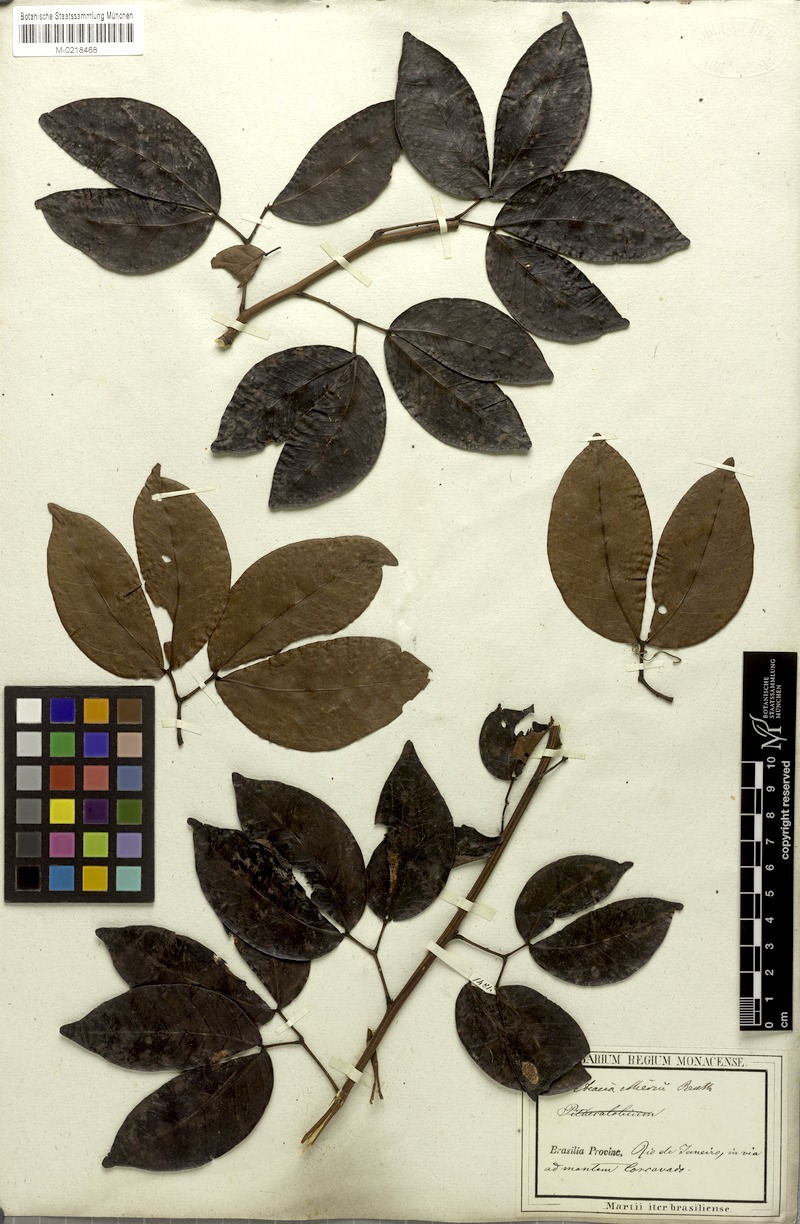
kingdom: Plantae
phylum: Tracheophyta
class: Magnoliopsida
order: Fabales
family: Fabaceae
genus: Parasenegalia
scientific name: Parasenegalia miersii
